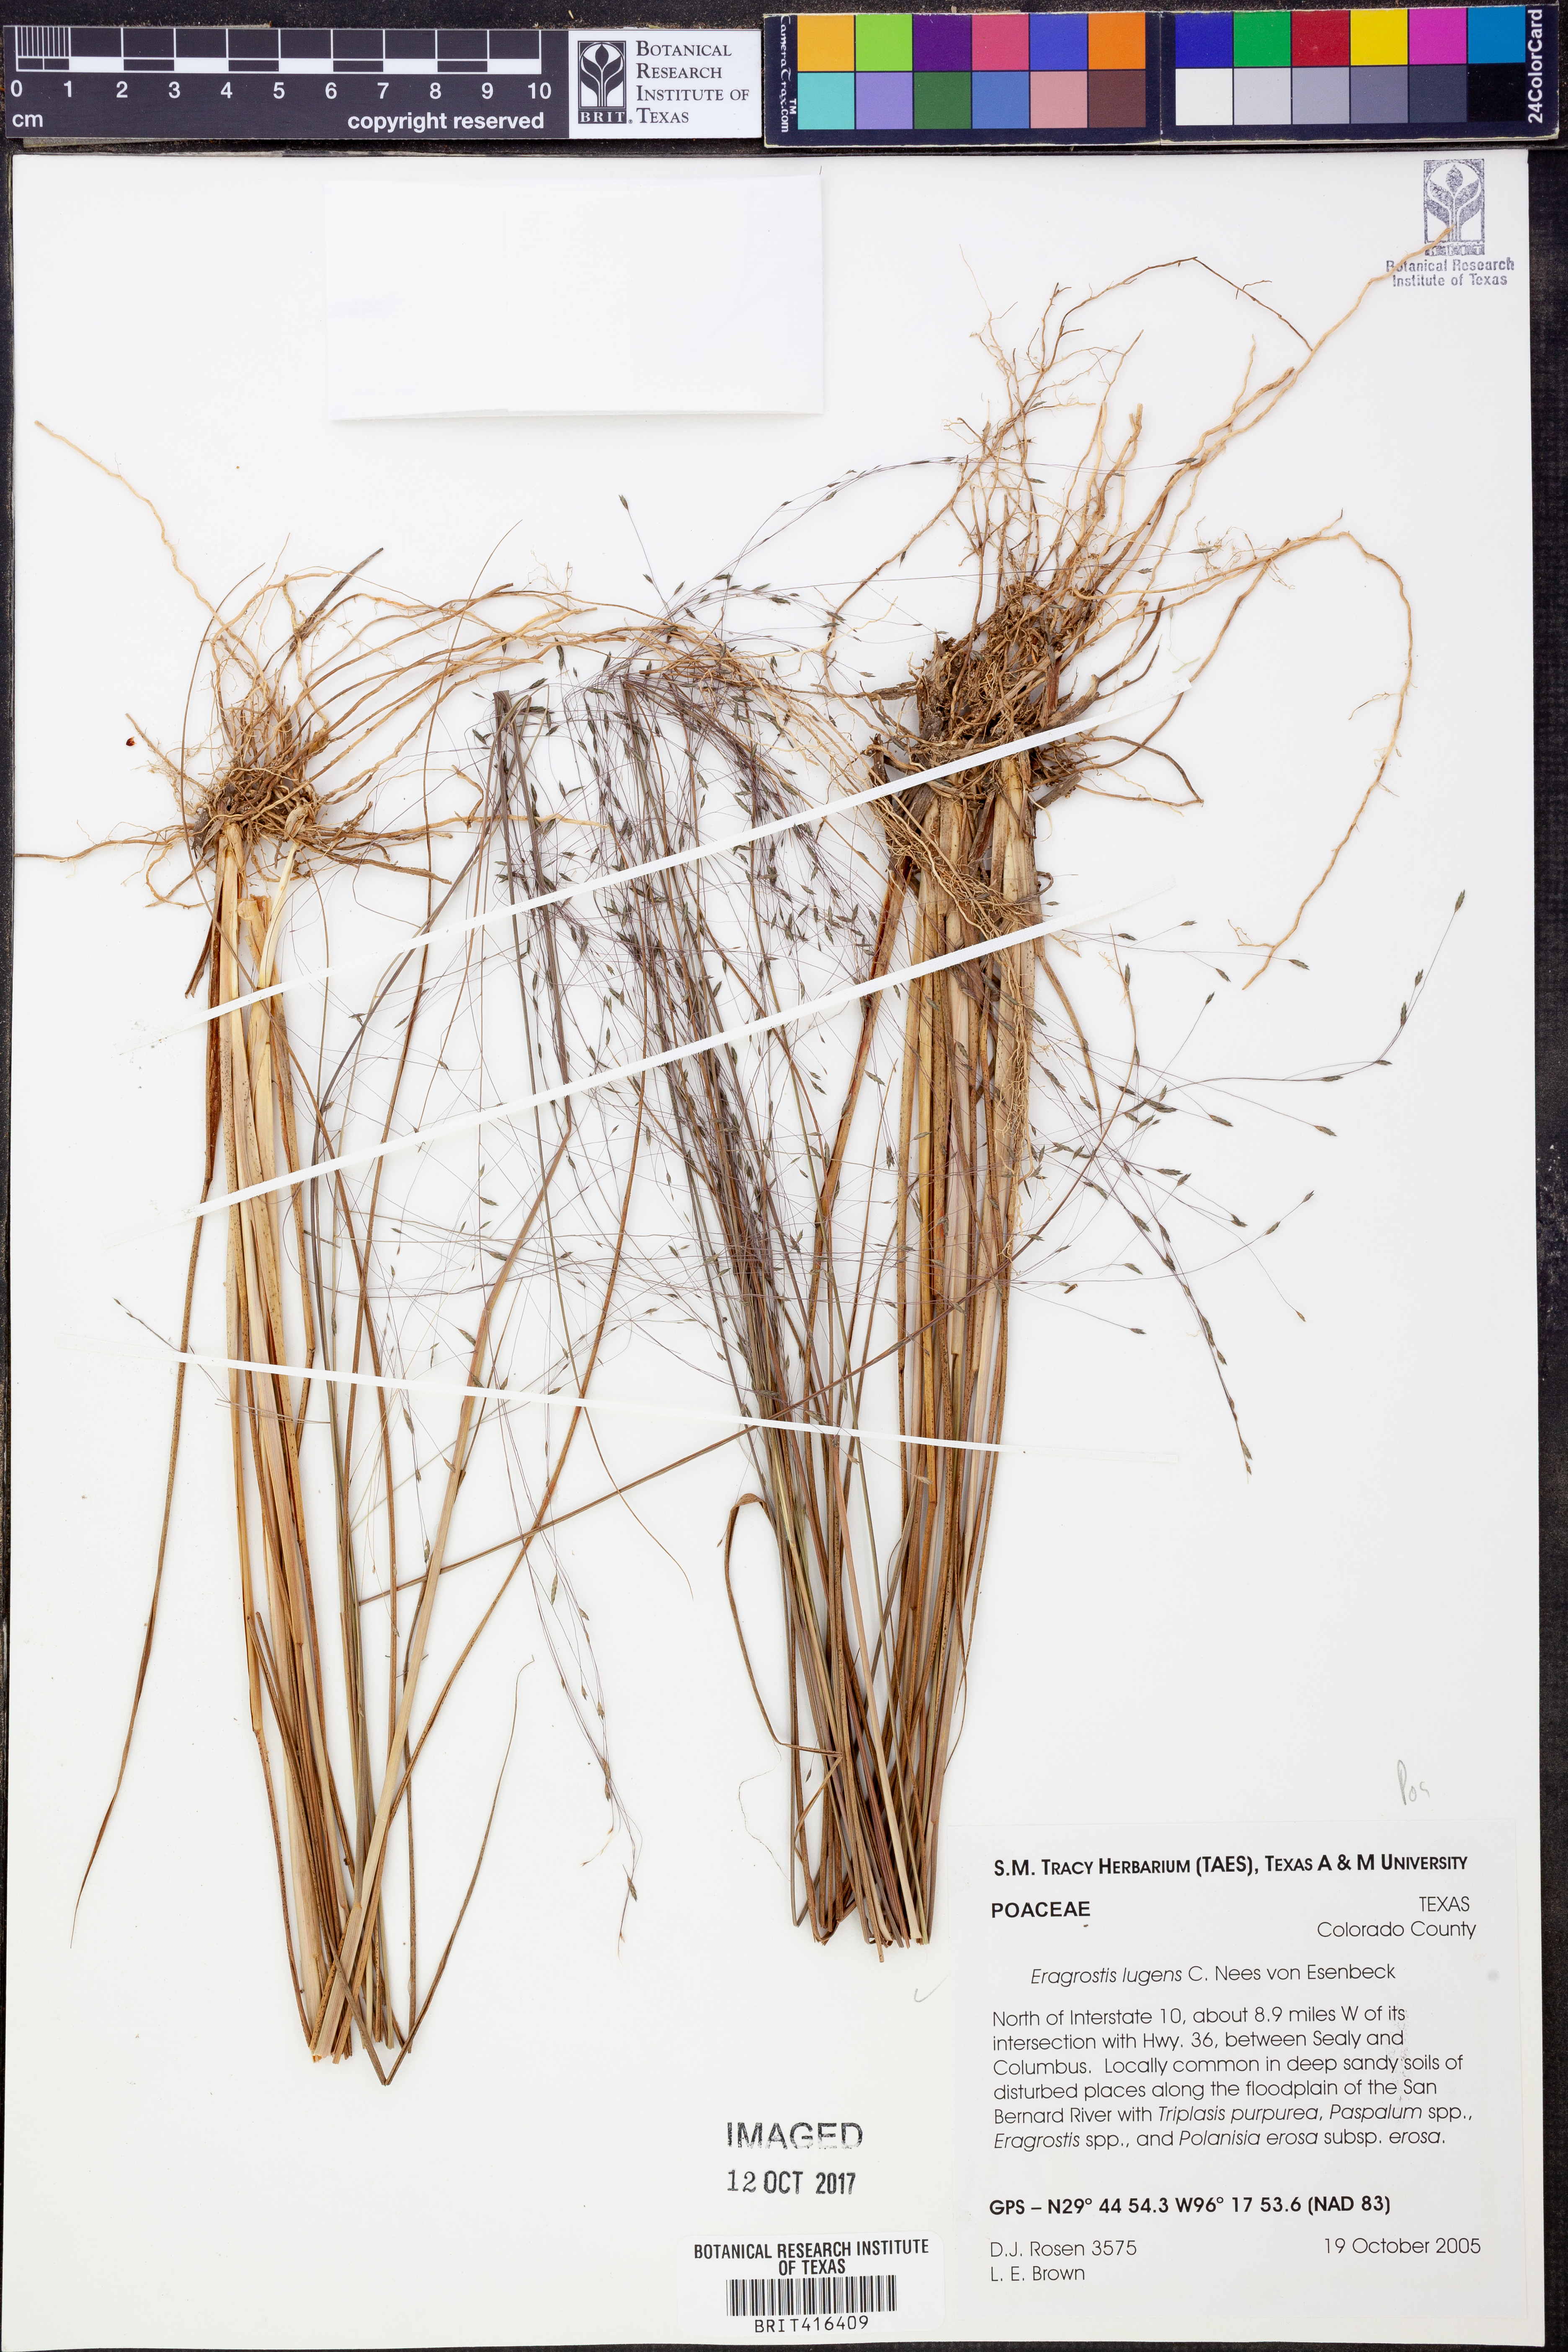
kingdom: Plantae
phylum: Tracheophyta
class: Liliopsida
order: Poales
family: Poaceae
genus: Eragrostis
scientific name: Eragrostis capillaris
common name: Hair-like lovegrass
